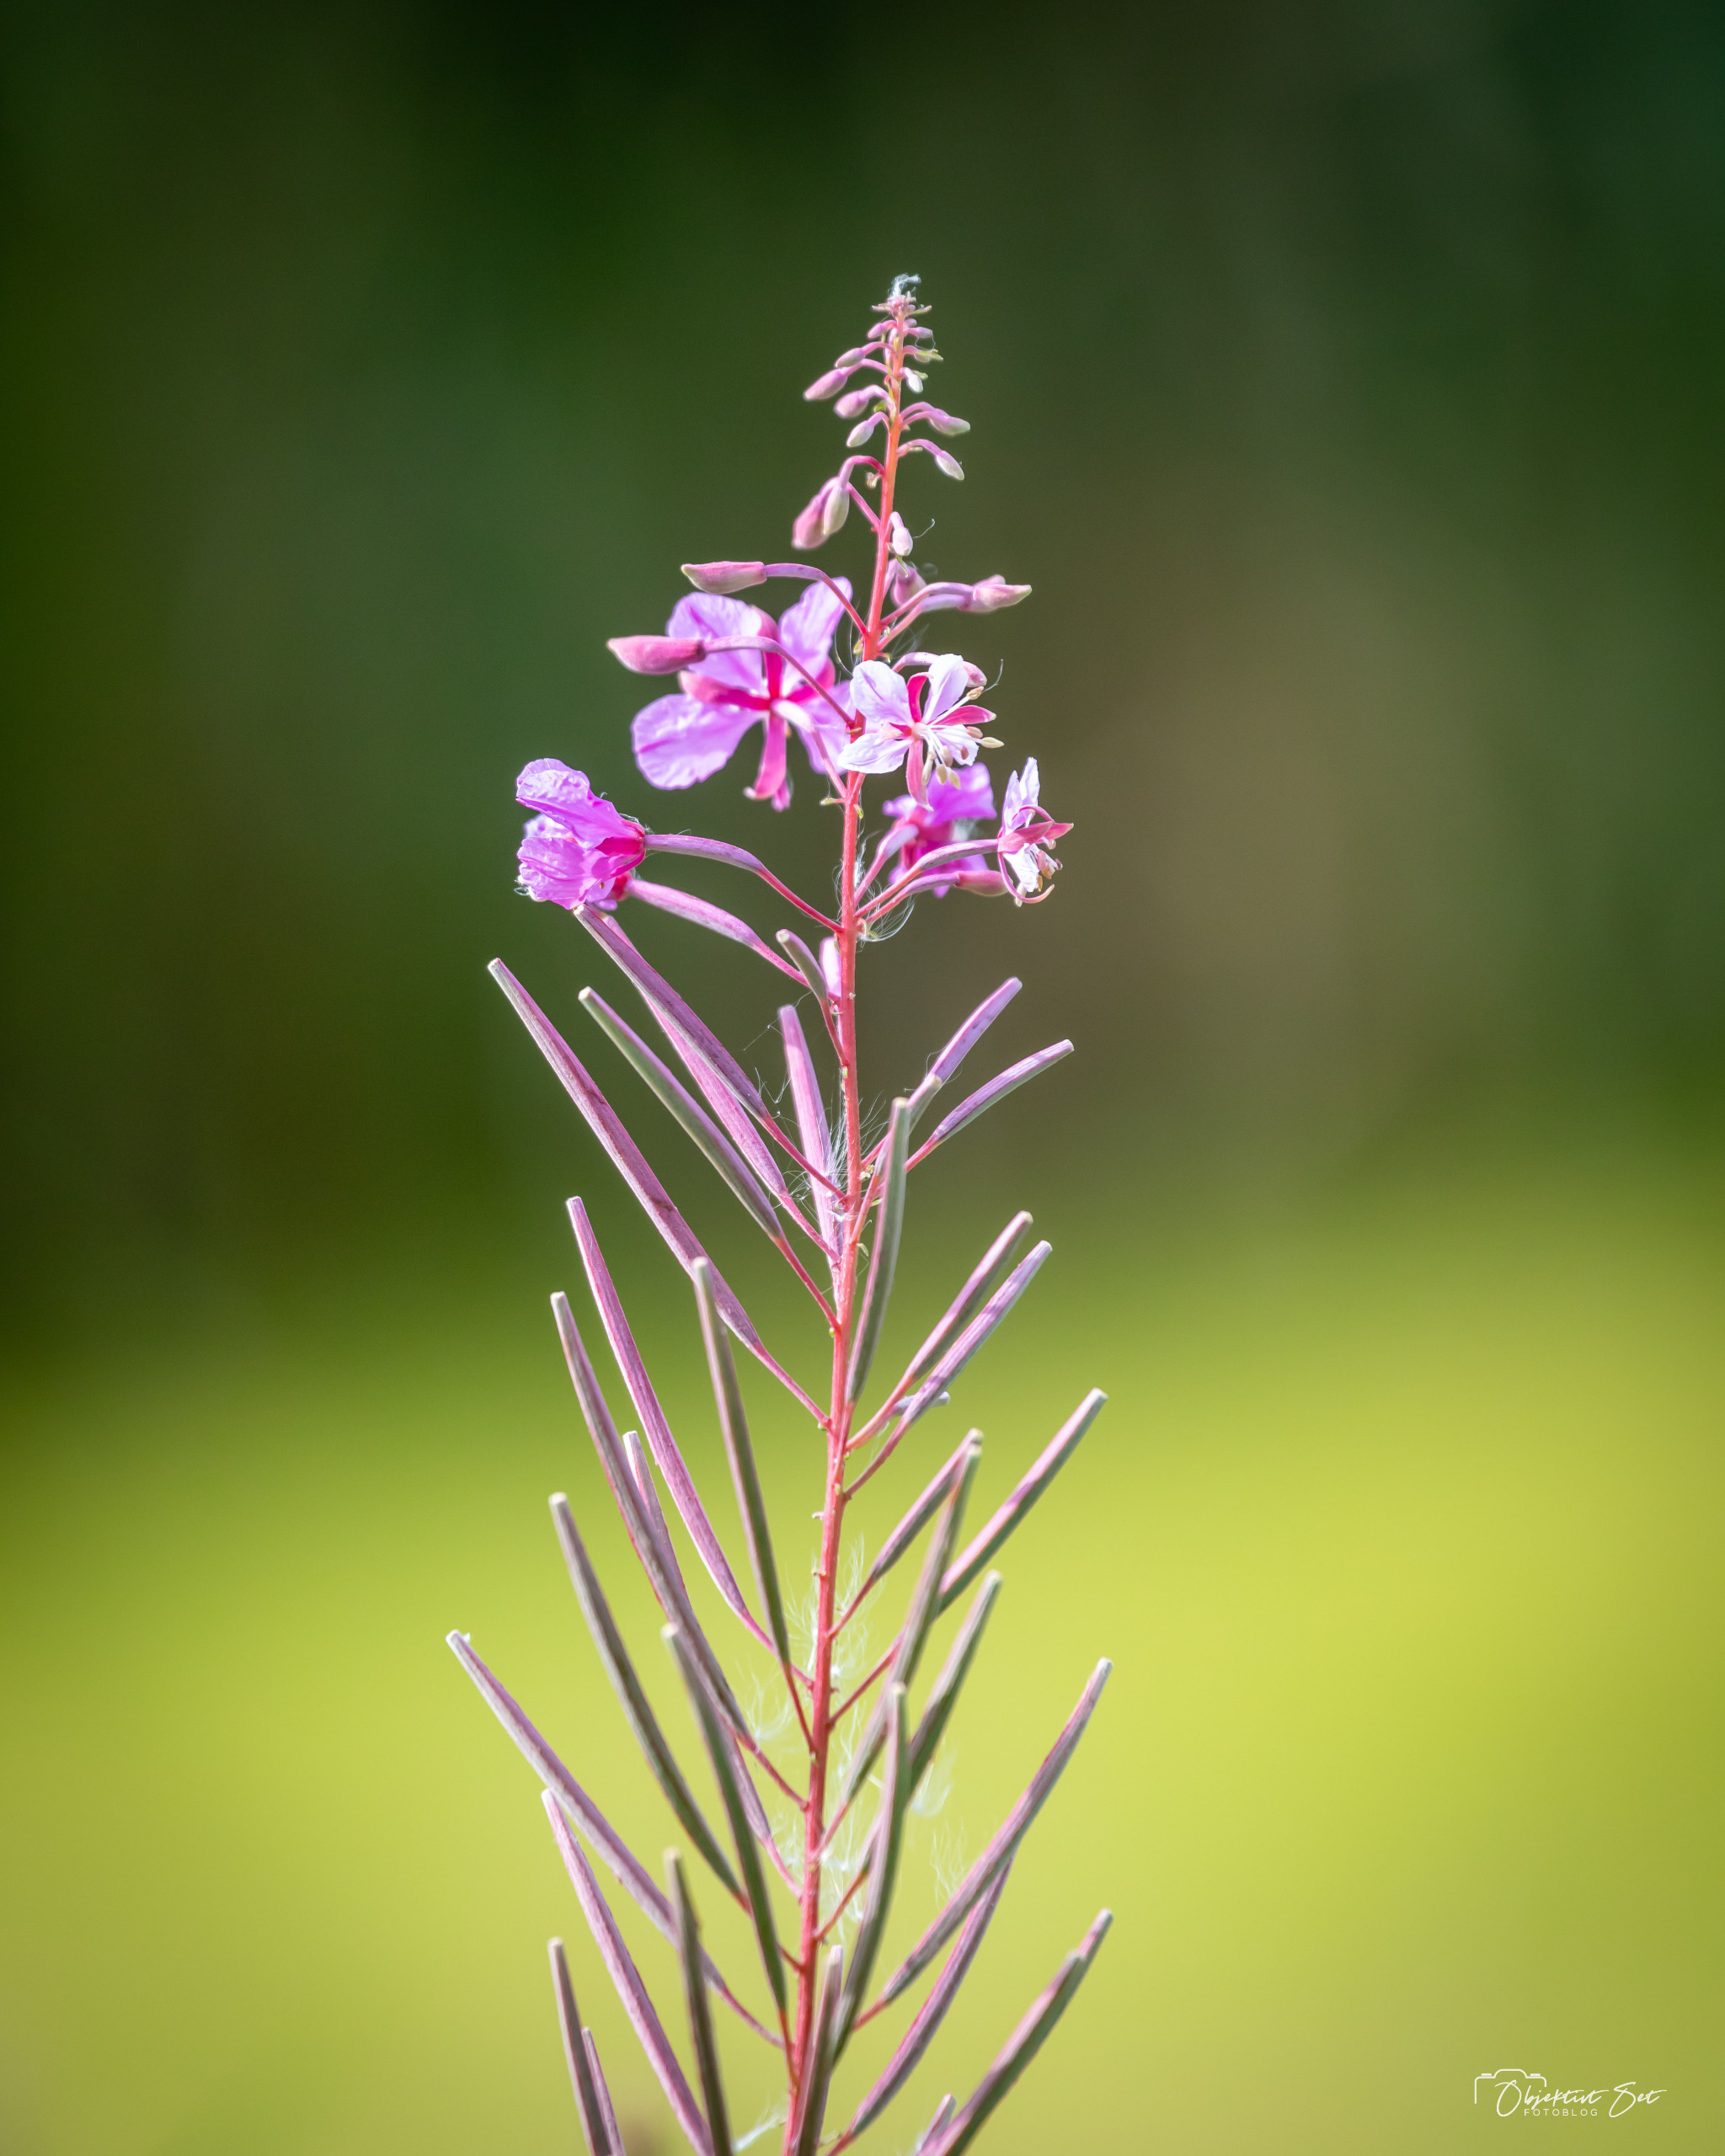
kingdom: Plantae
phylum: Tracheophyta
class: Magnoliopsida
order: Myrtales
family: Onagraceae
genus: Chamaenerion
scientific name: Chamaenerion angustifolium
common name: Gederams
